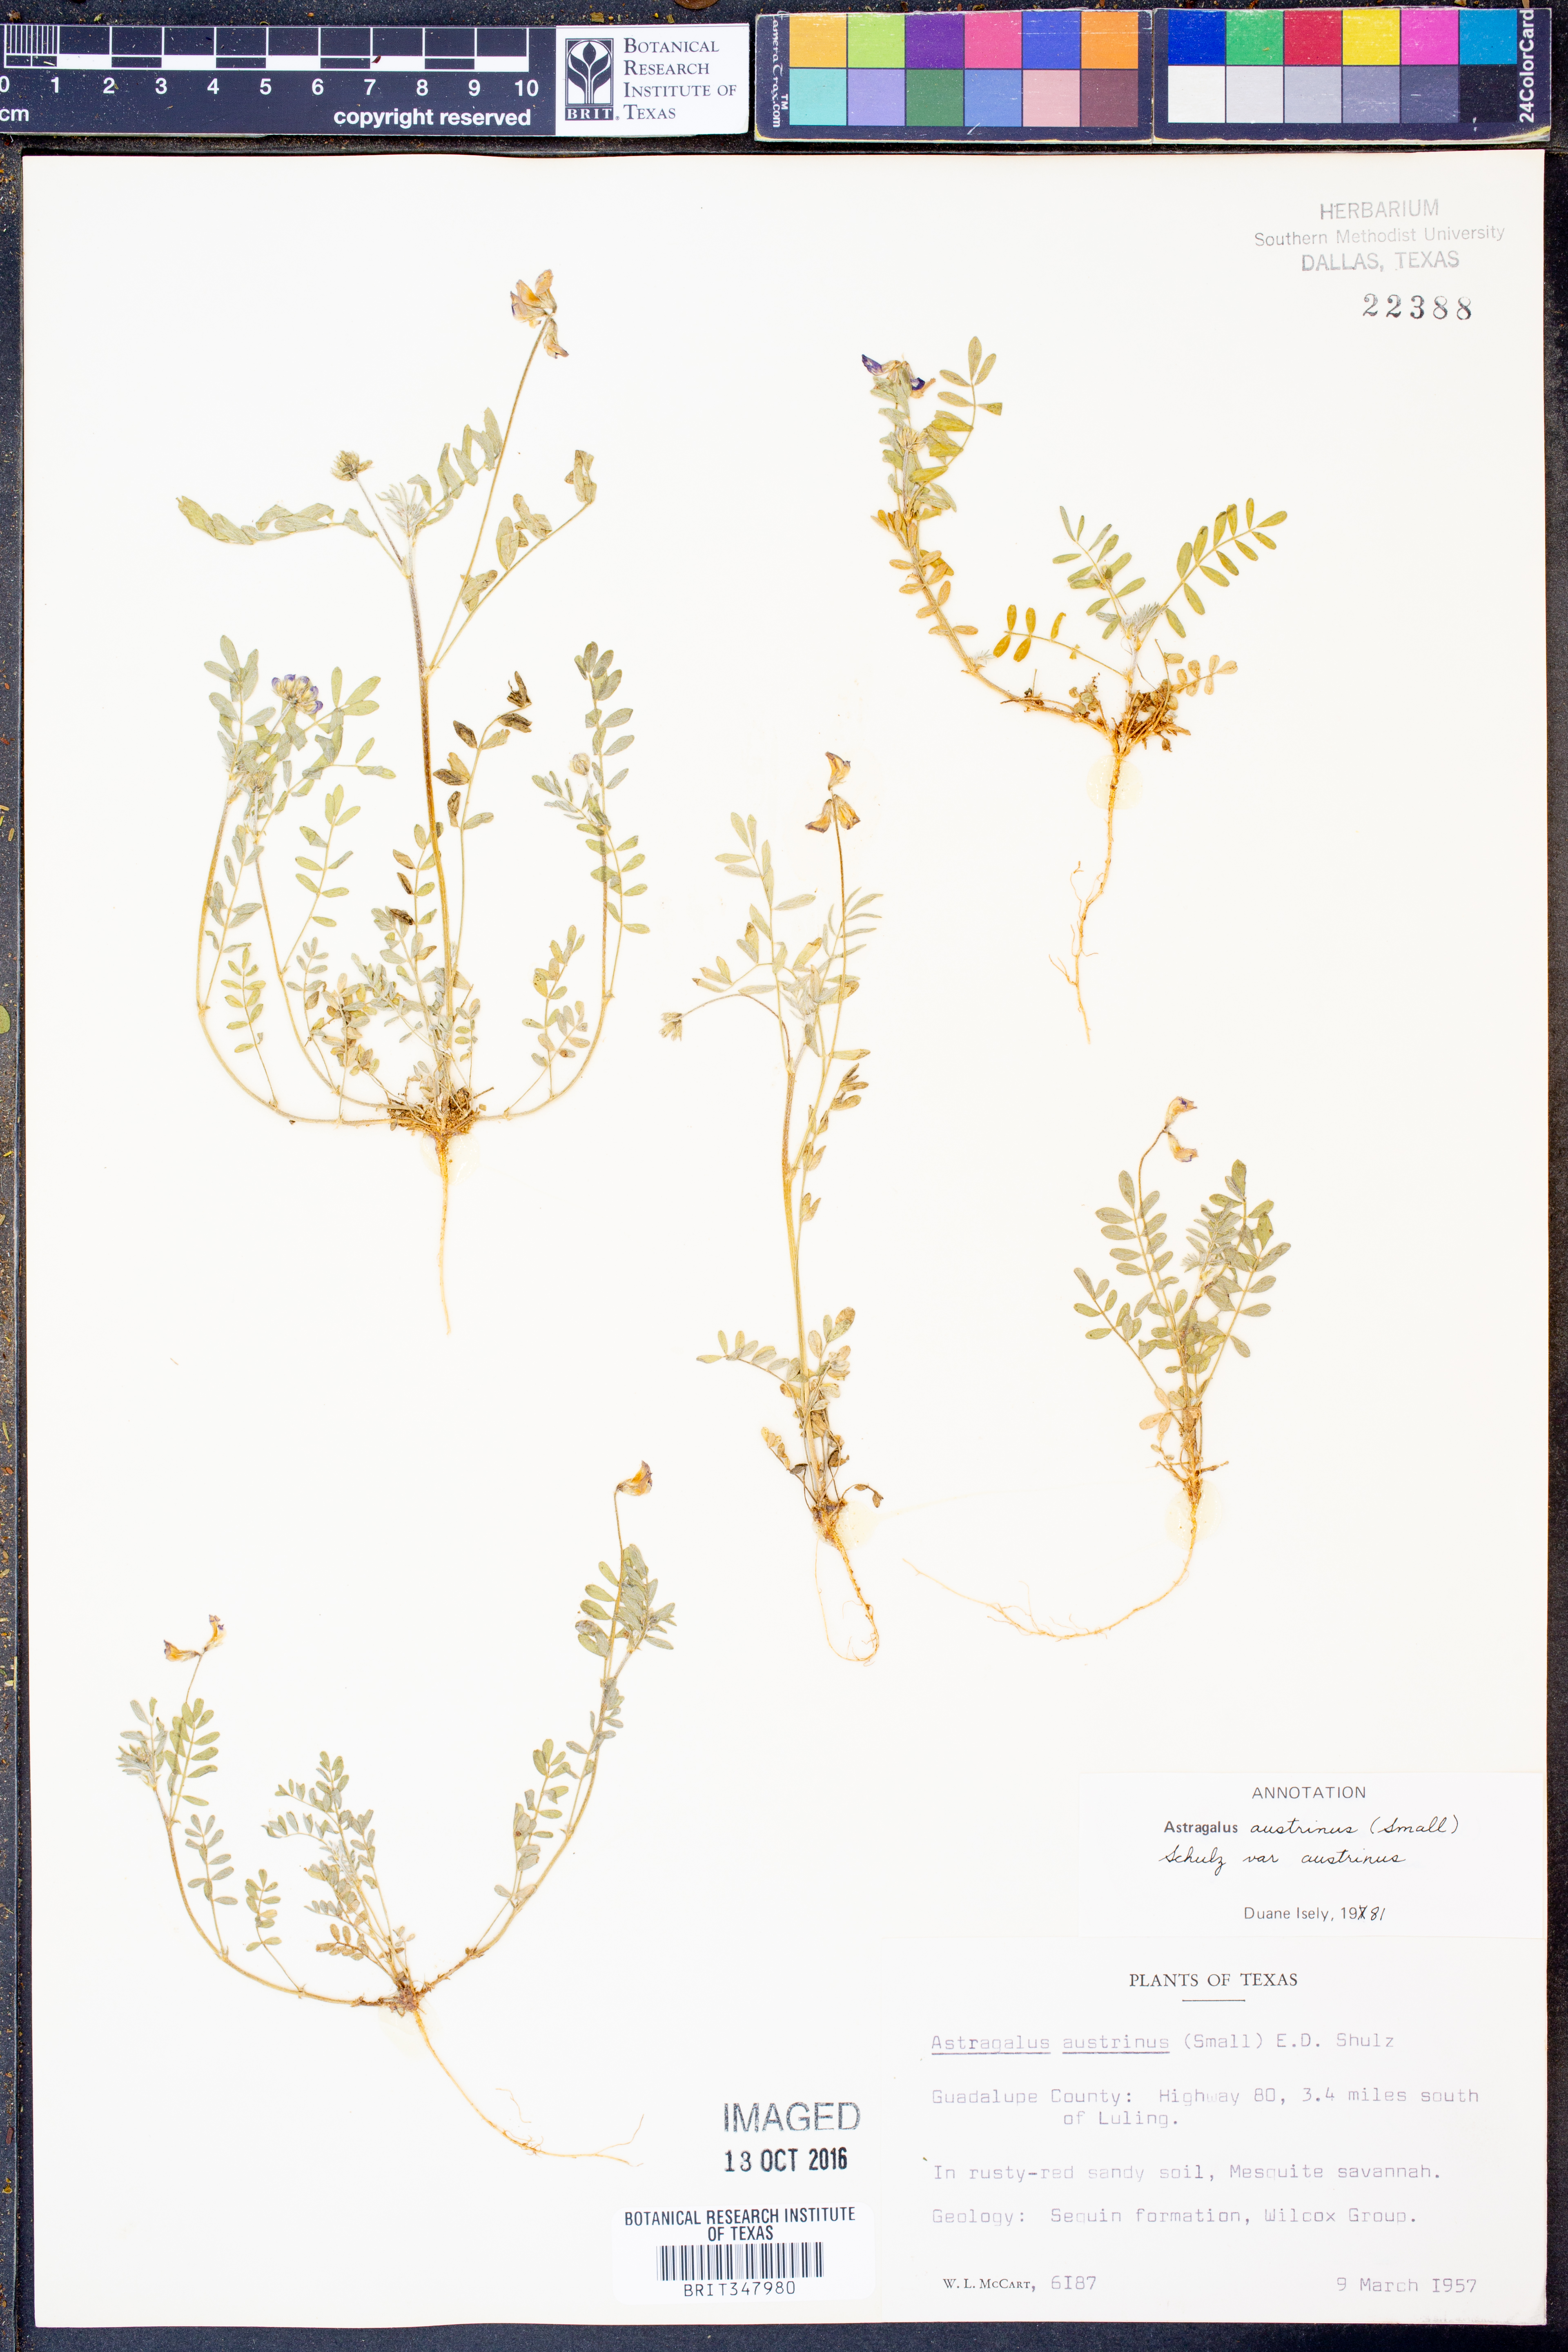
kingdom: Plantae
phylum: Tracheophyta
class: Magnoliopsida
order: Fabales
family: Fabaceae
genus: Astragalus
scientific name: Astragalus nuttallianus
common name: Smallflowered milkvetch
